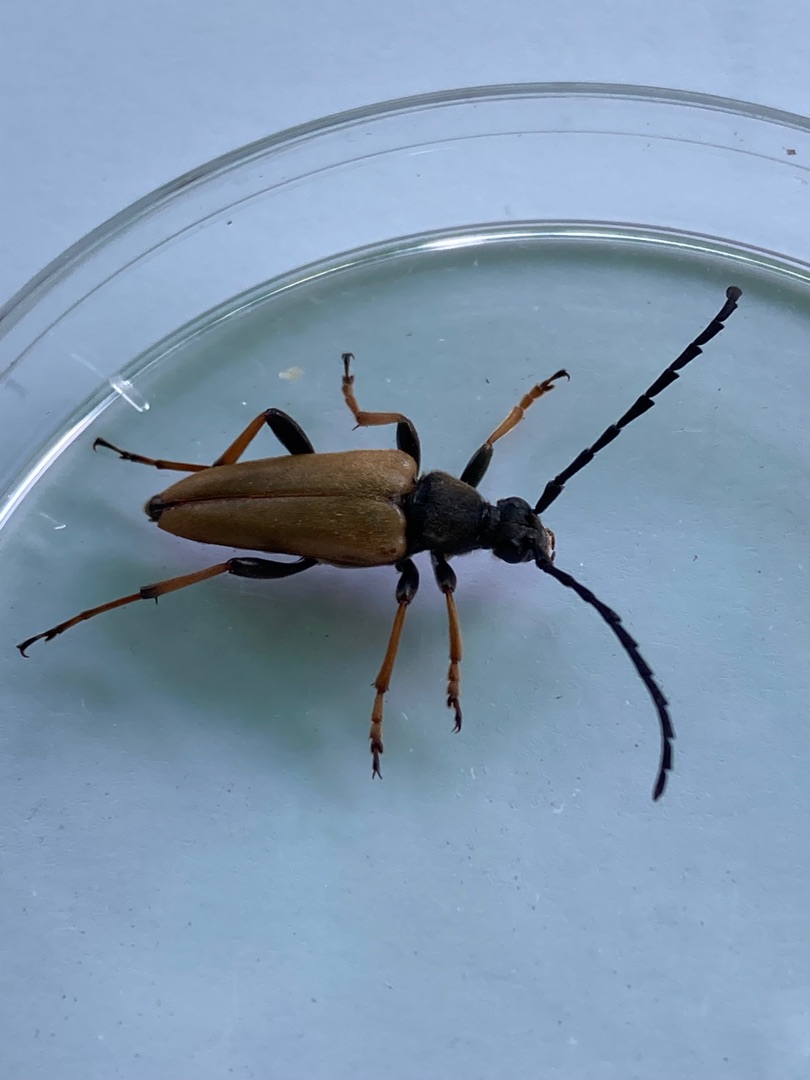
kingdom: Animalia
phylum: Arthropoda
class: Insecta
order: Coleoptera
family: Cerambycidae
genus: Stictoleptura
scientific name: Stictoleptura rubra
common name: Rød blomsterbuk
